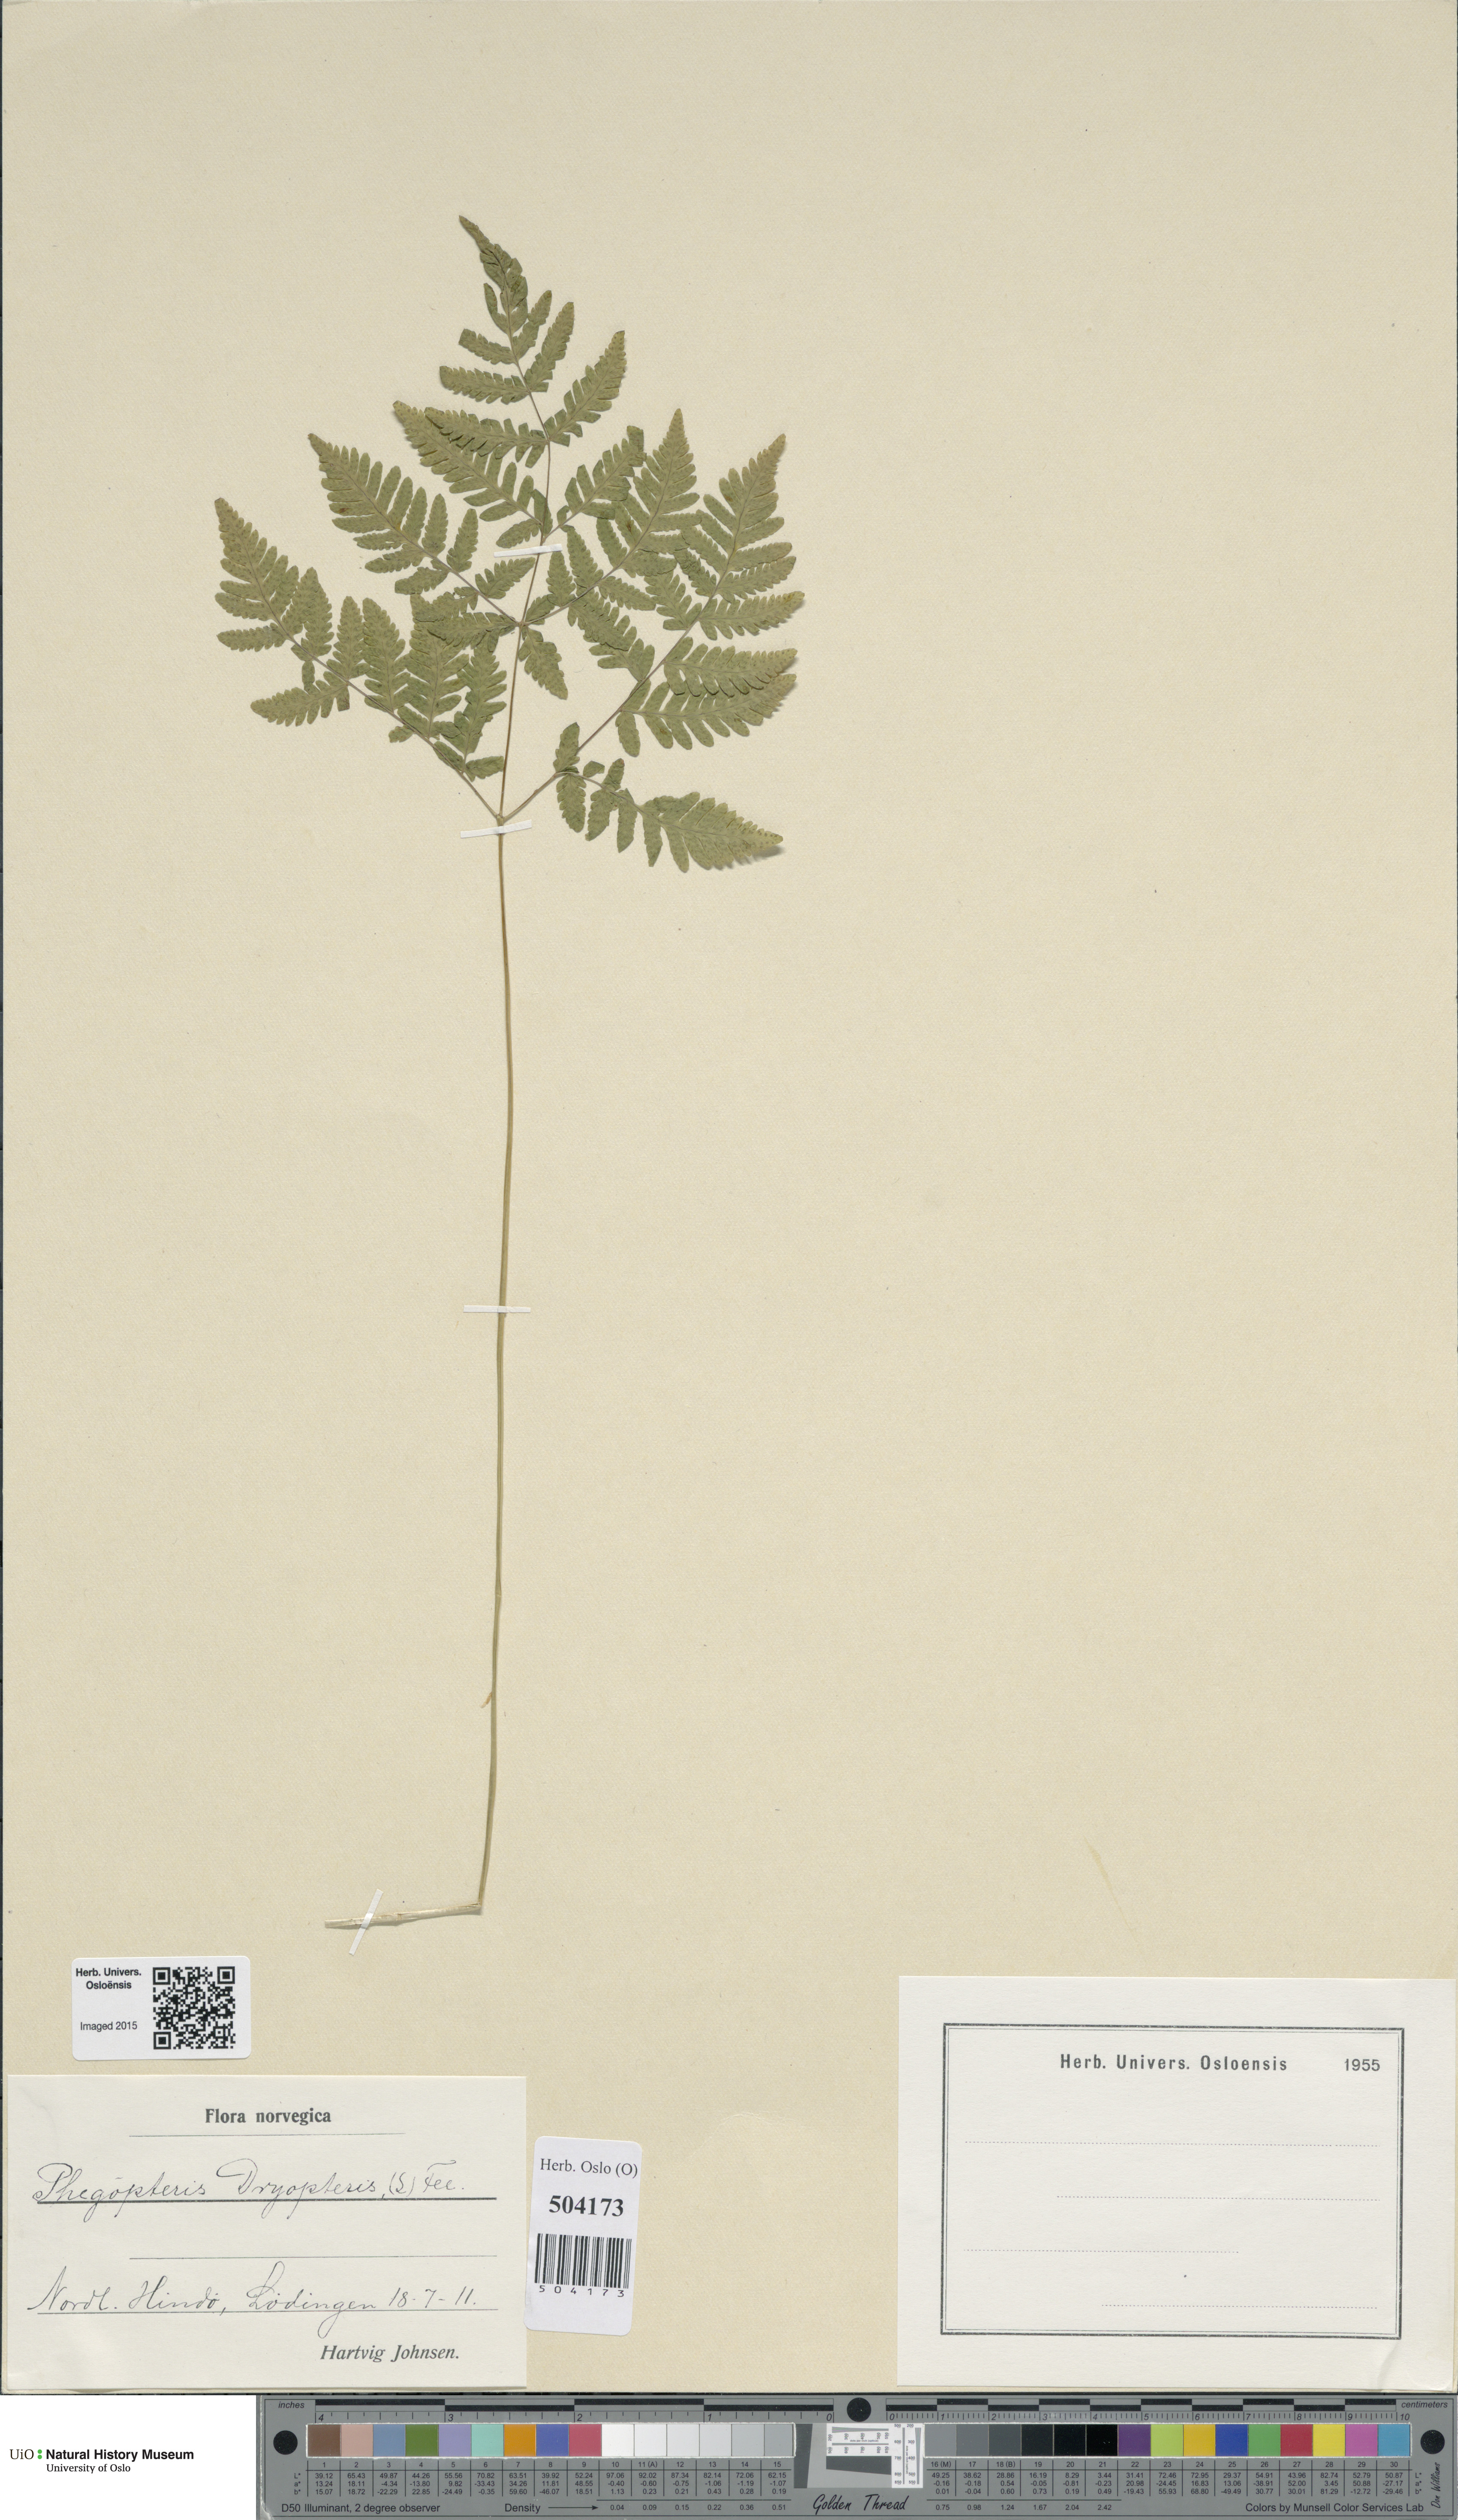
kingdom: Plantae
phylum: Tracheophyta
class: Polypodiopsida
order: Polypodiales
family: Cystopteridaceae
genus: Gymnocarpium
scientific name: Gymnocarpium dryopteris
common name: Oak fern
